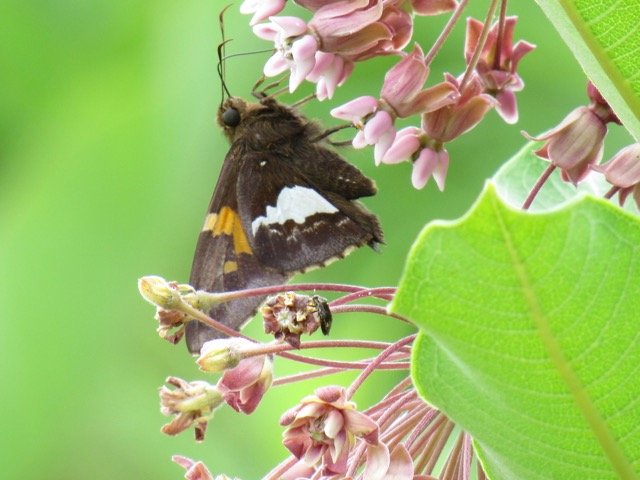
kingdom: Animalia
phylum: Arthropoda
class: Insecta
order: Lepidoptera
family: Hesperiidae
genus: Epargyreus
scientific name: Epargyreus clarus
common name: Silver-spotted Skipper
